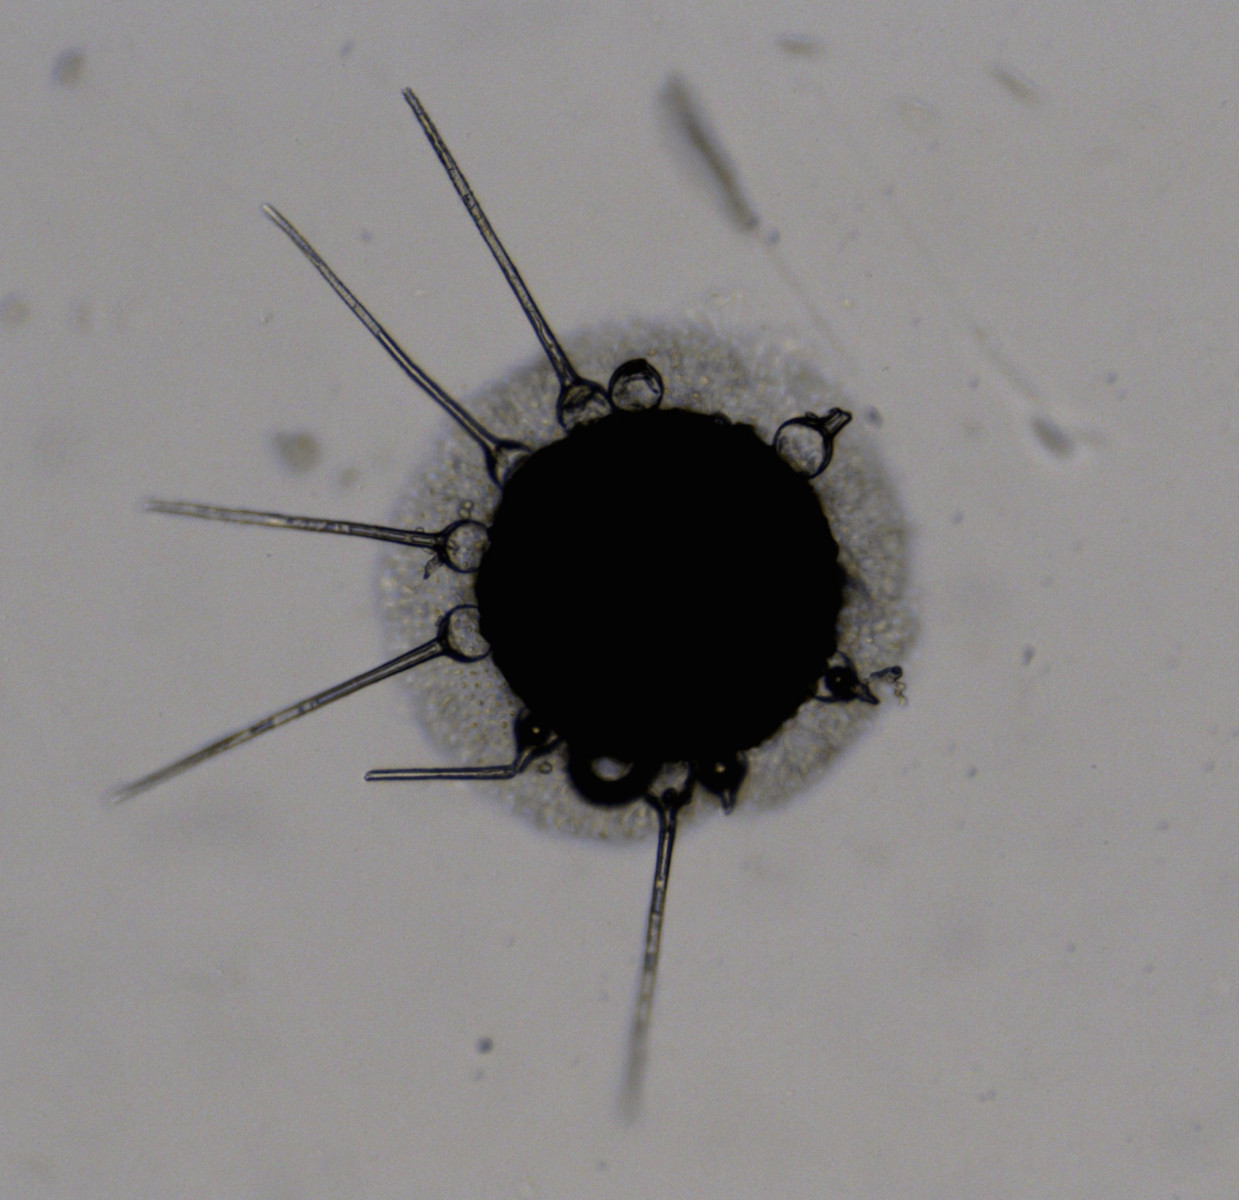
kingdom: Fungi
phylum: Ascomycota
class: Leotiomycetes
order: Helotiales
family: Erysiphaceae
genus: Phyllactinia
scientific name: Phyllactinia fraxini
